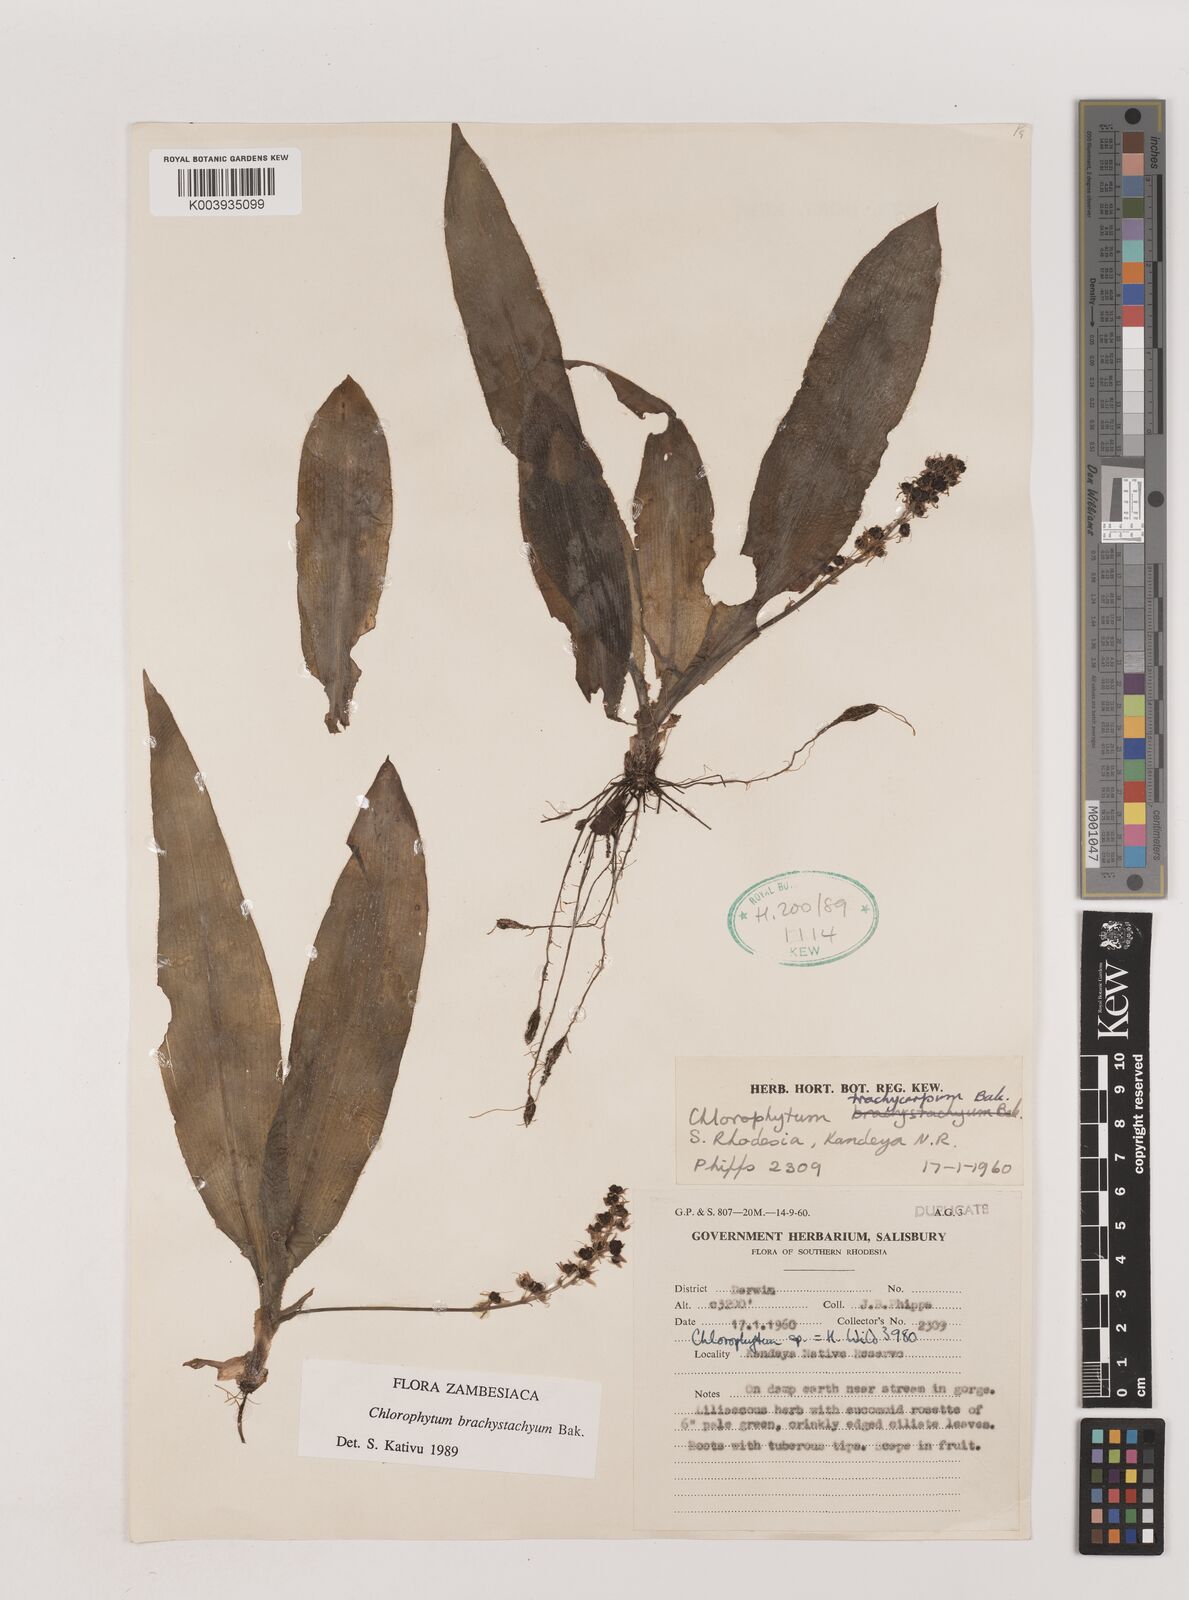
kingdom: Plantae
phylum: Tracheophyta
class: Liliopsida
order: Asparagales
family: Asparagaceae
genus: Chlorophytum
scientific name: Chlorophytum brachystachyum
